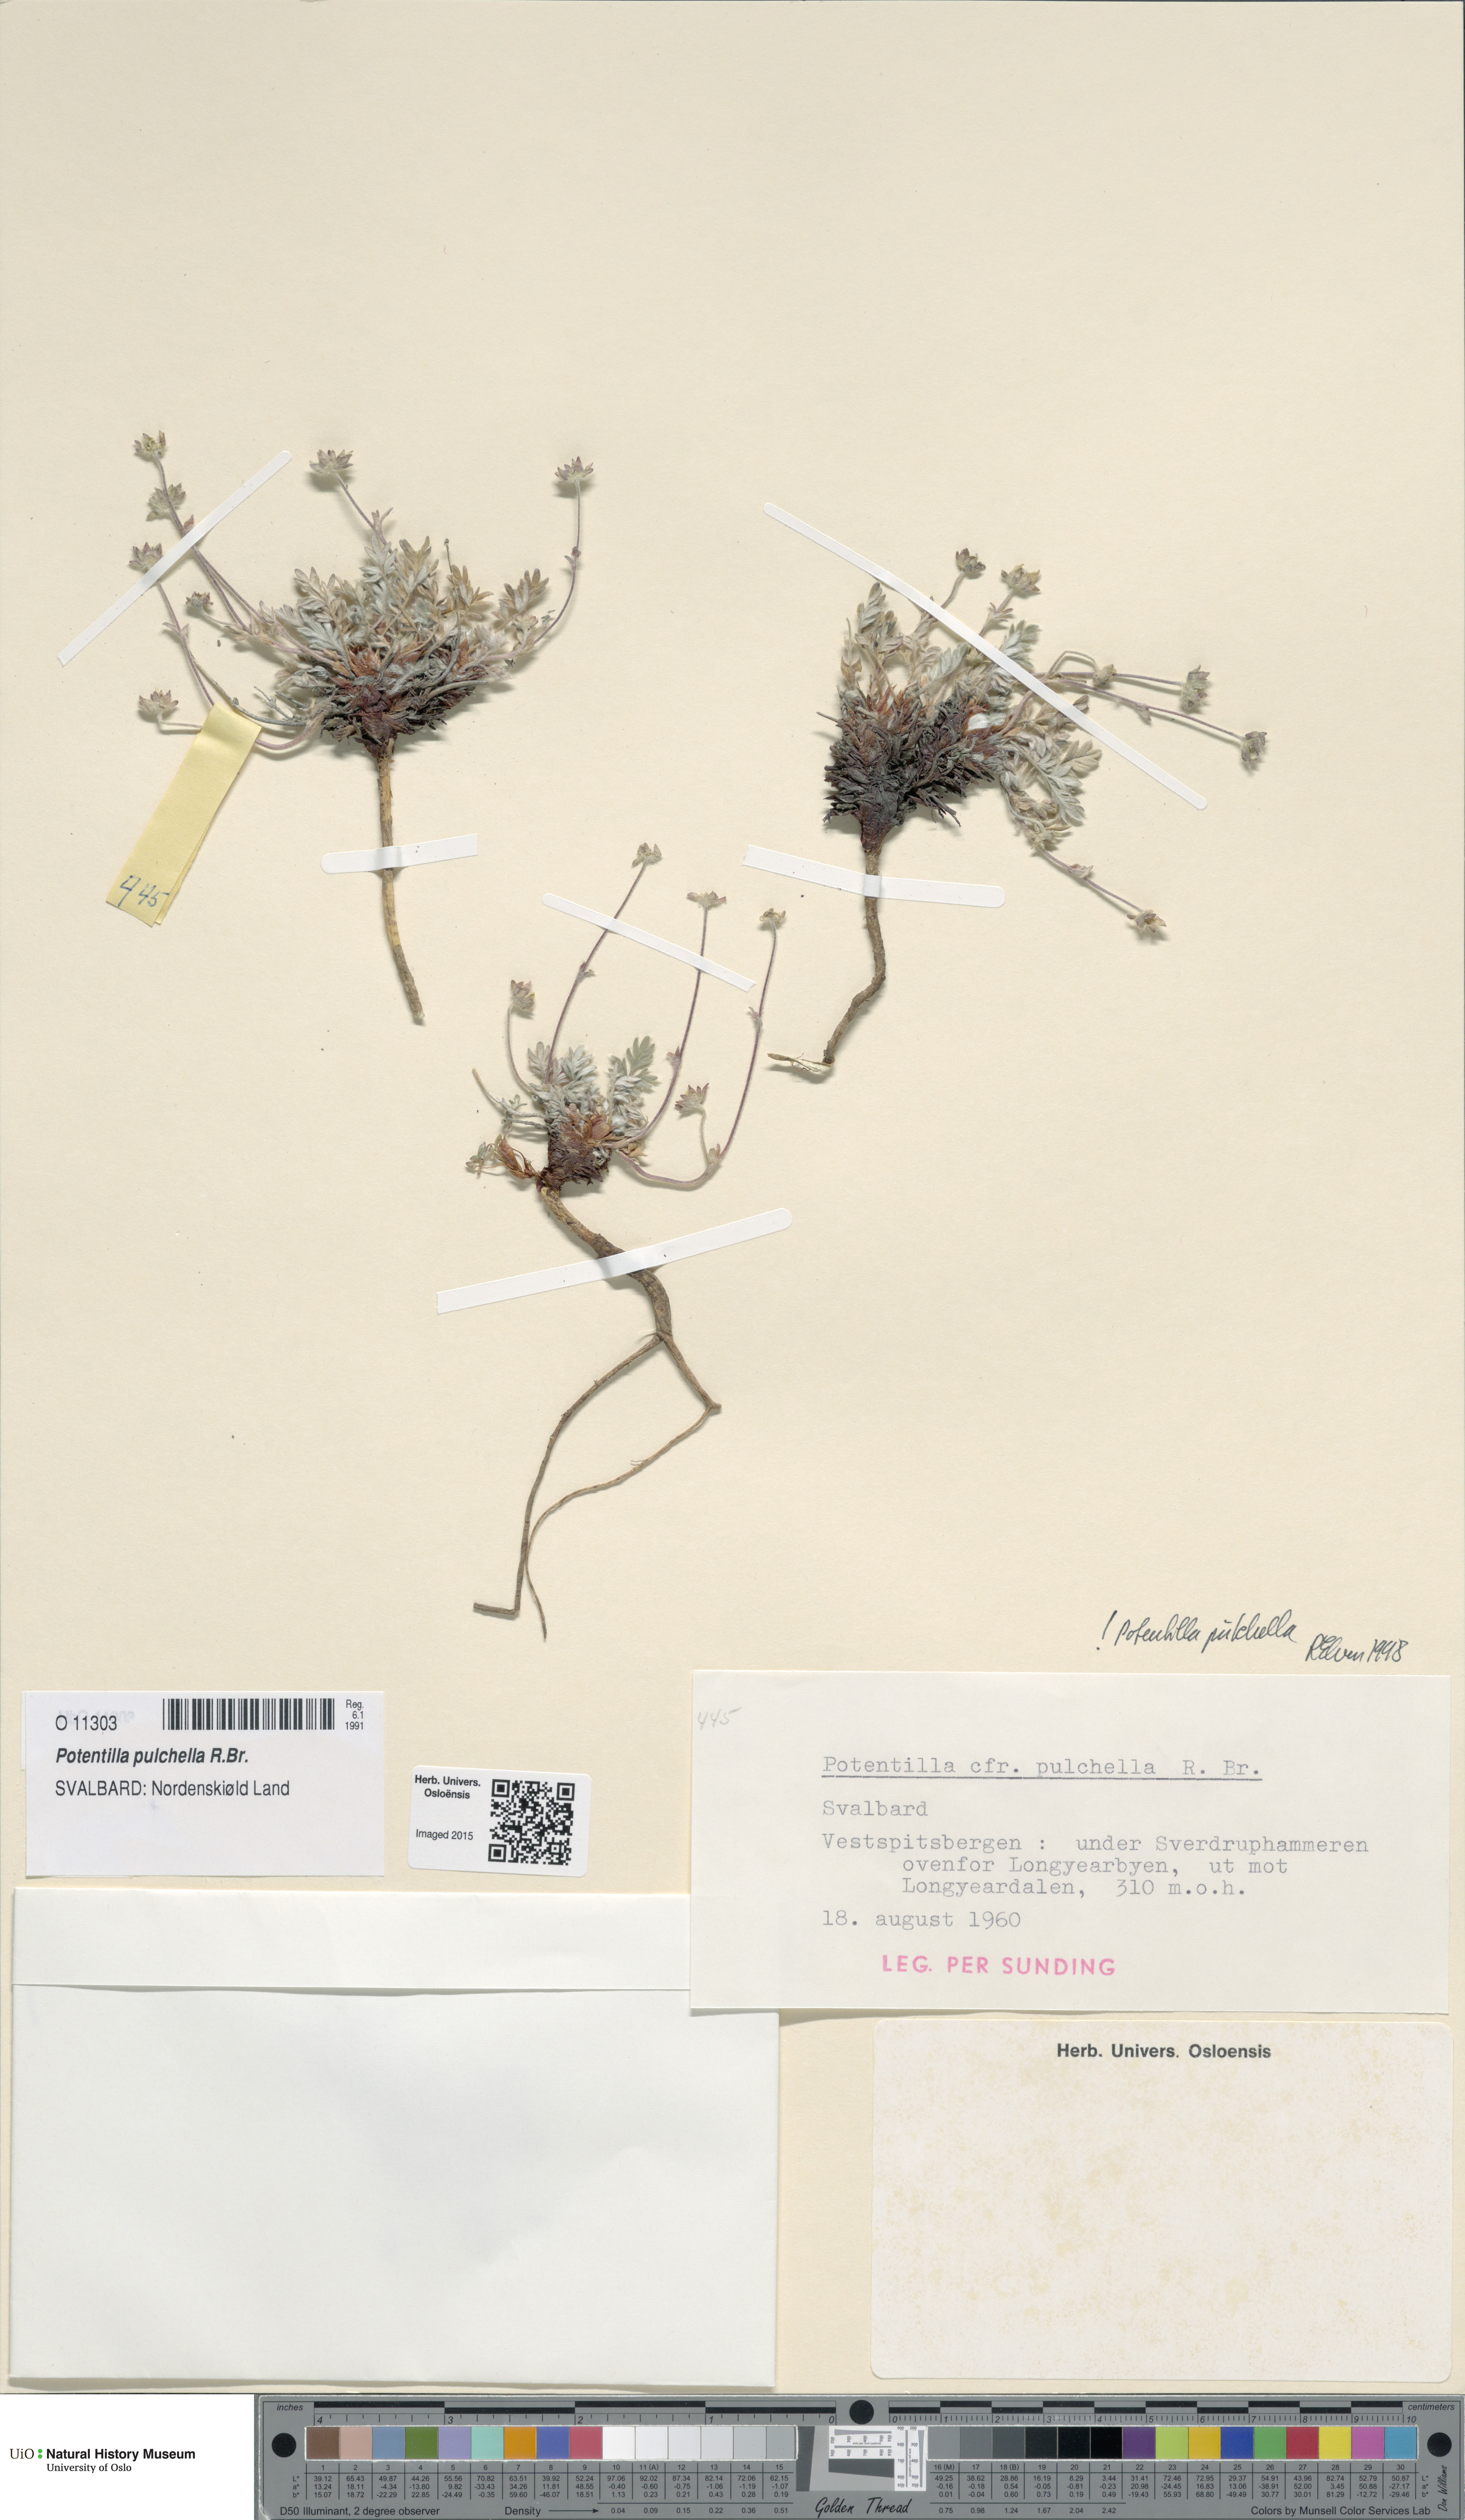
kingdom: Plantae
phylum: Tracheophyta
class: Magnoliopsida
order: Rosales
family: Rosaceae
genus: Potentilla
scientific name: Potentilla pulchella
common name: Pretty cinquefoil
